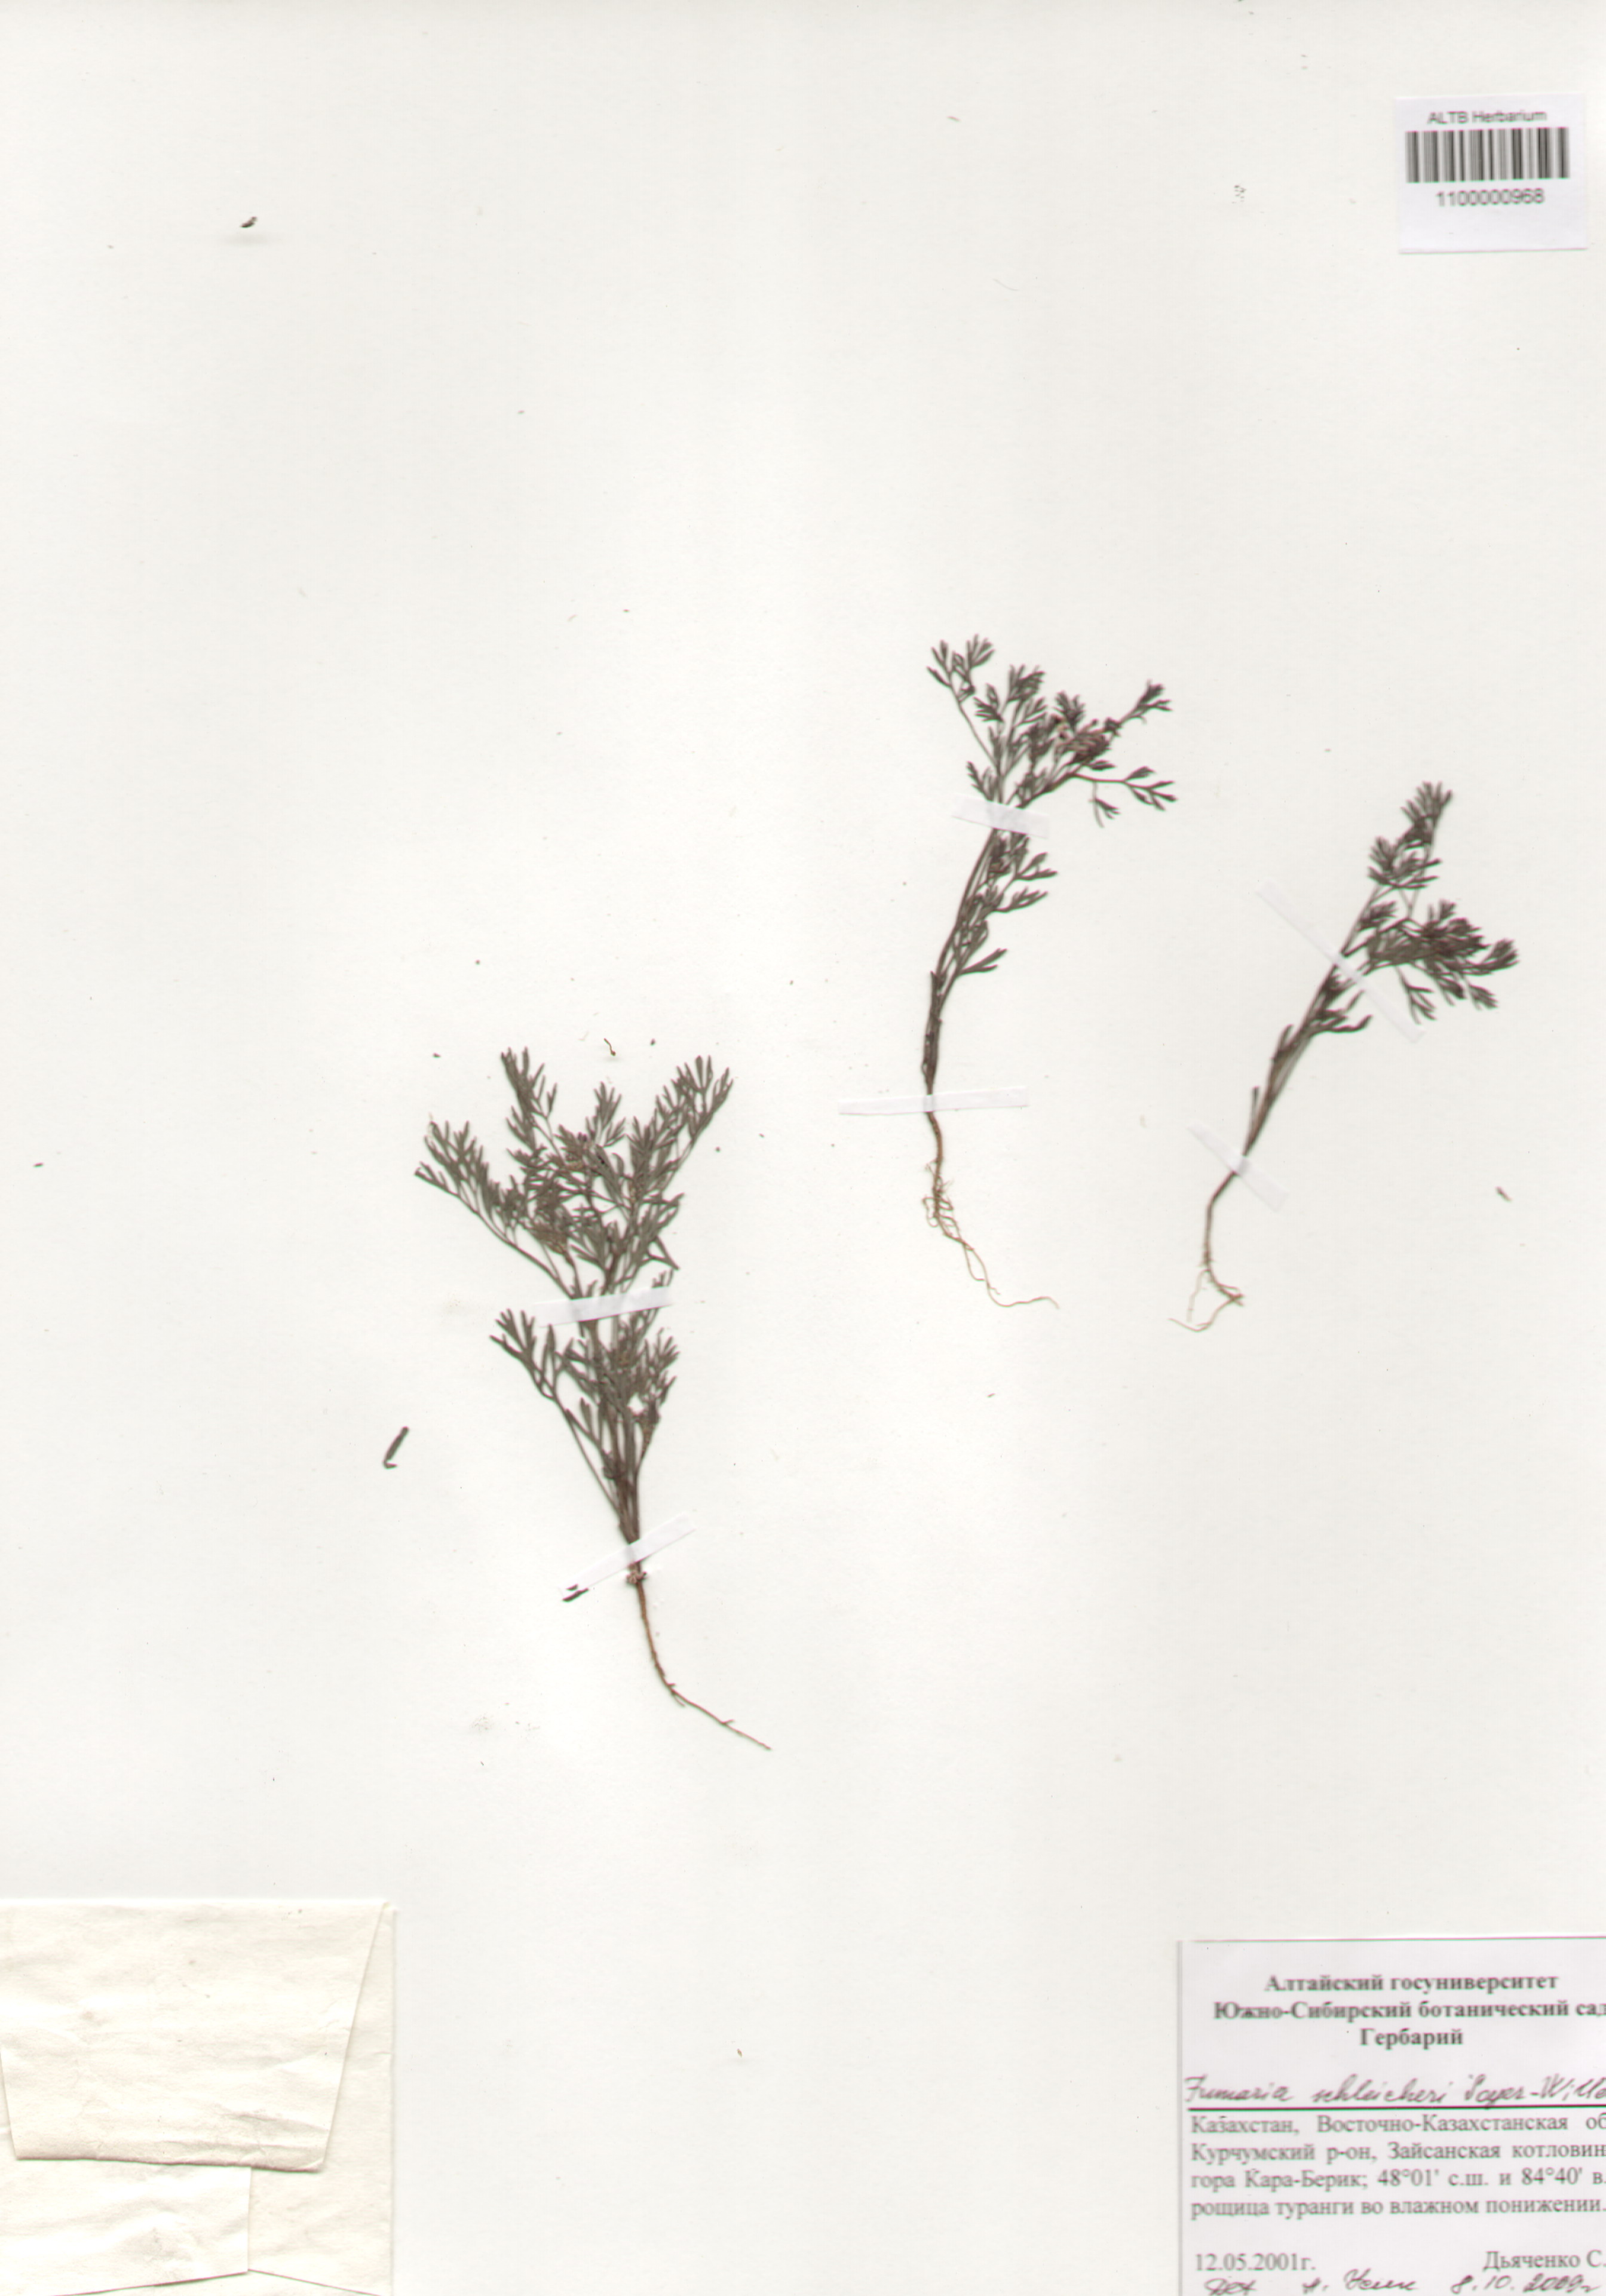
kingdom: Plantae
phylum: Tracheophyta
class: Magnoliopsida
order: Ranunculales
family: Papaveraceae
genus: Fumaria
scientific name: Fumaria schleicheri
